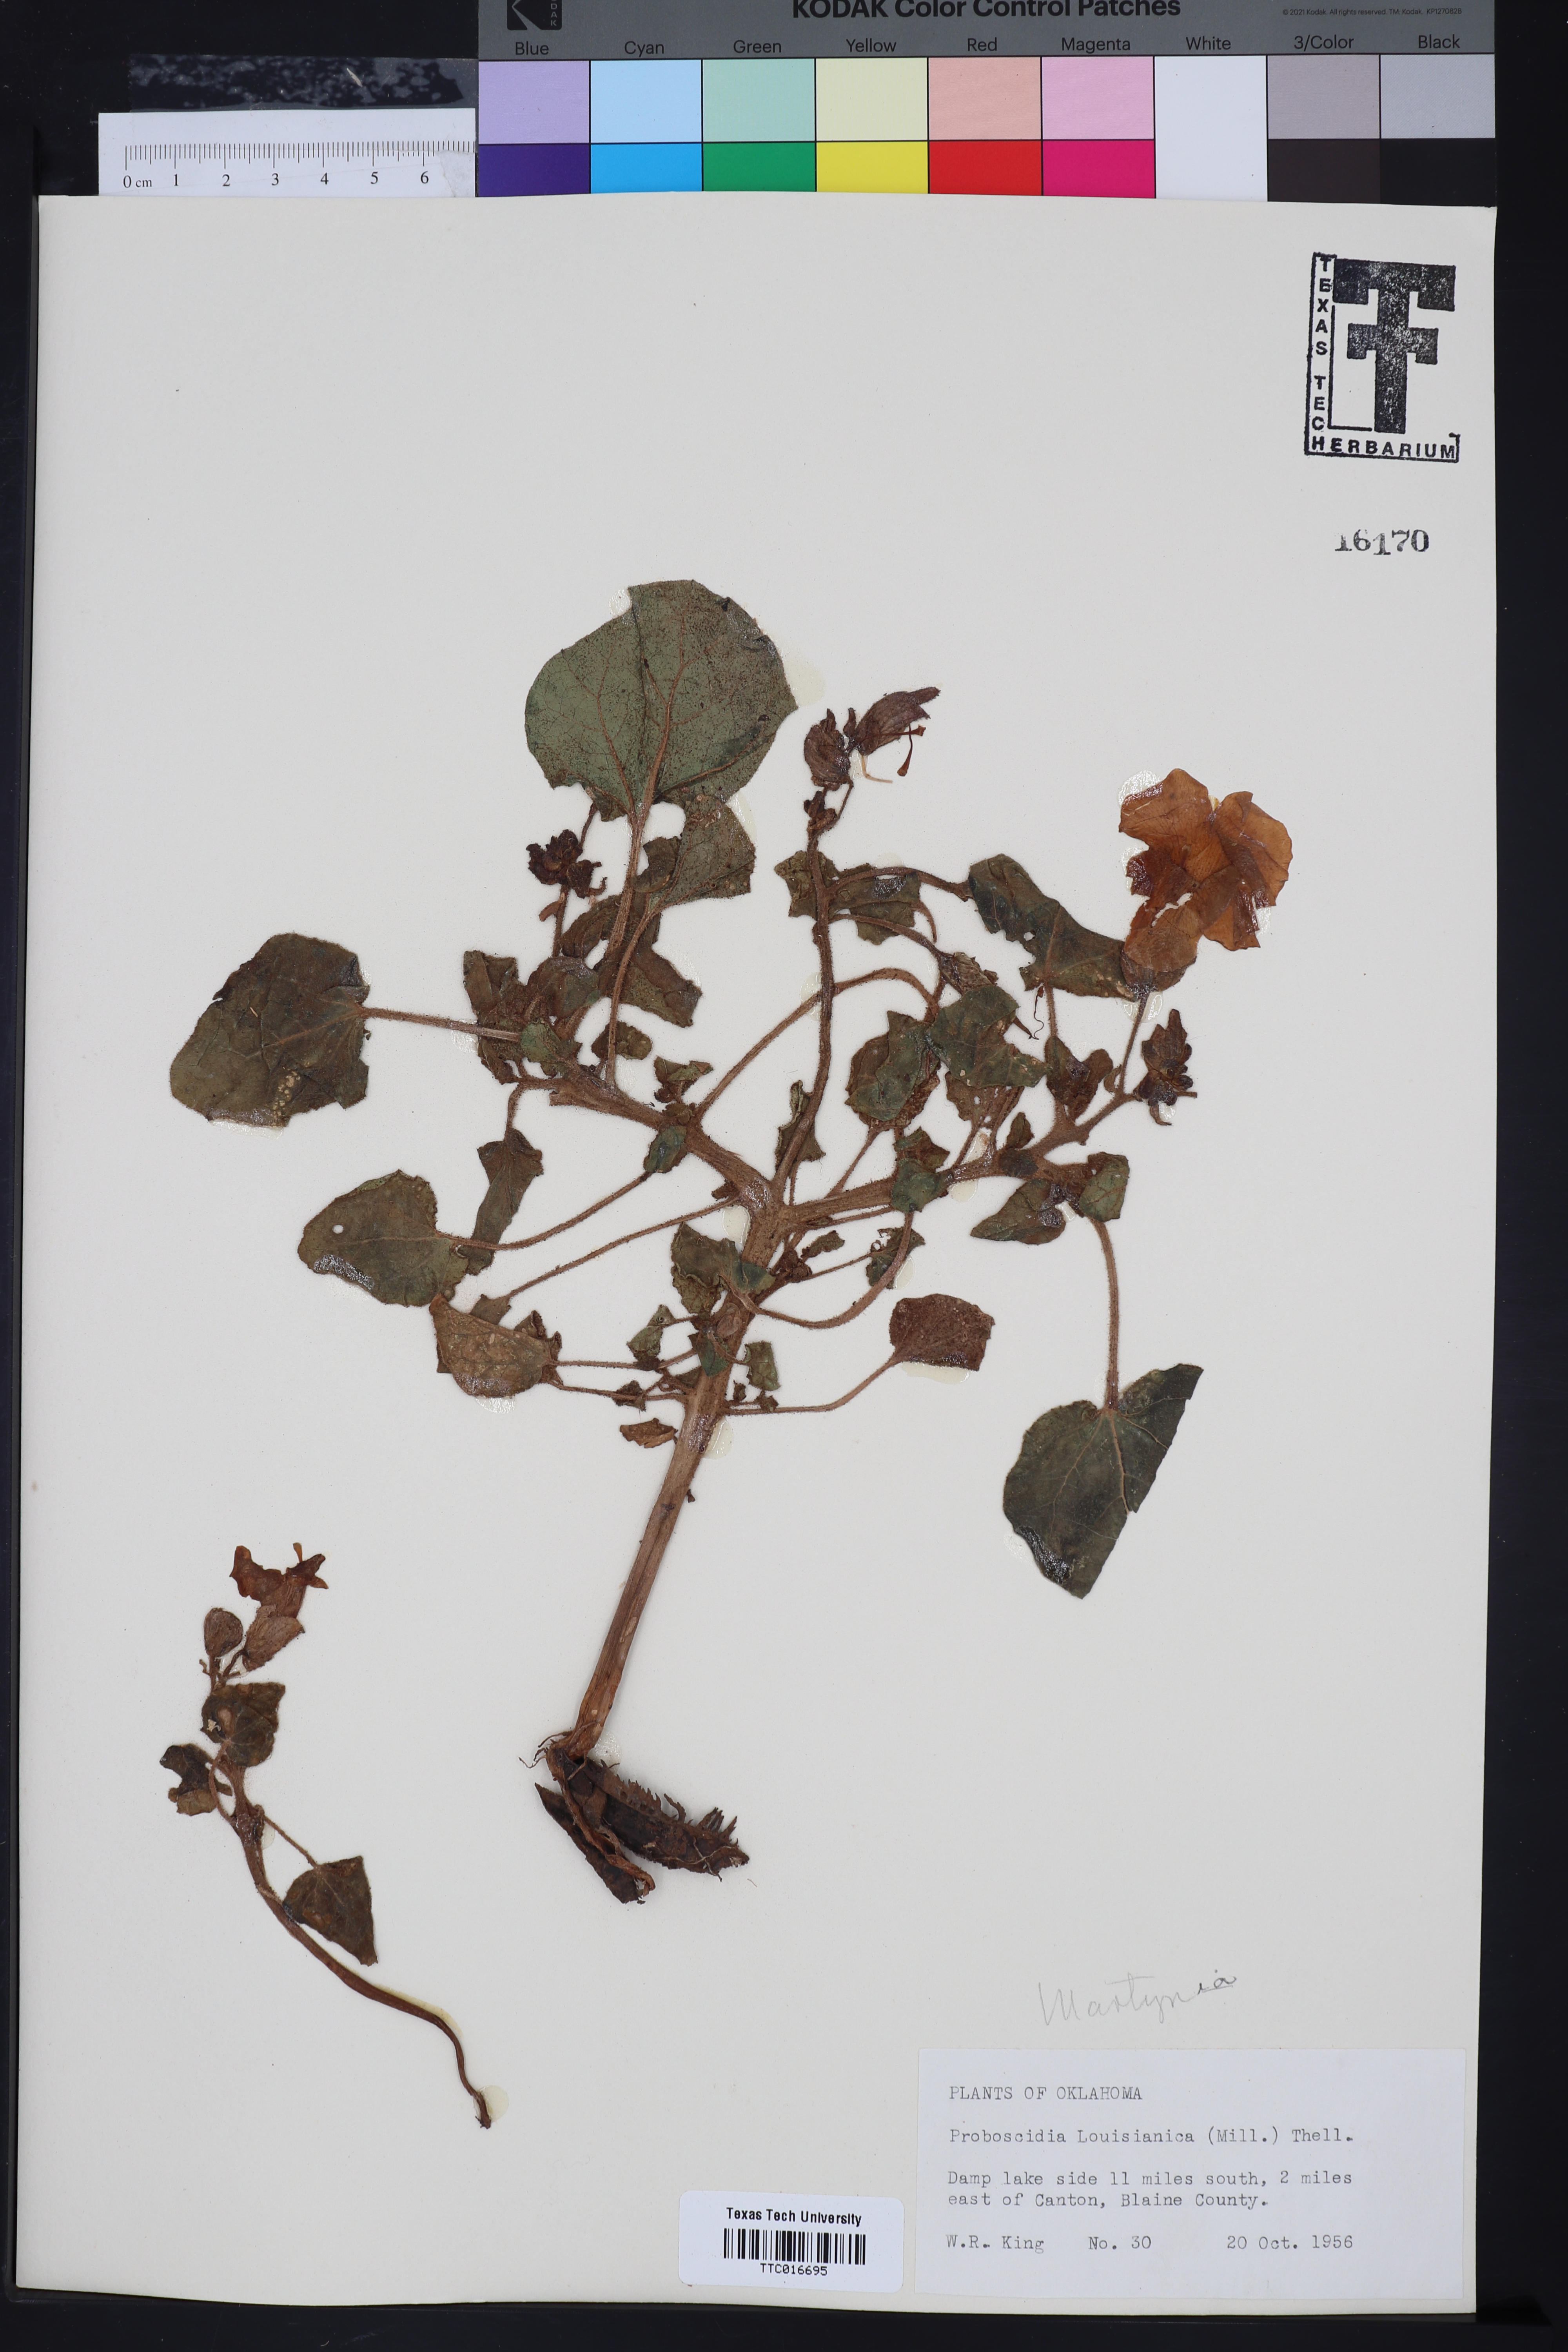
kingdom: Plantae
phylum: Tracheophyta
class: Magnoliopsida
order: Lamiales
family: Martyniaceae
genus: Proboscidea
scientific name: Proboscidea louisianica
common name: Elephant tusks
